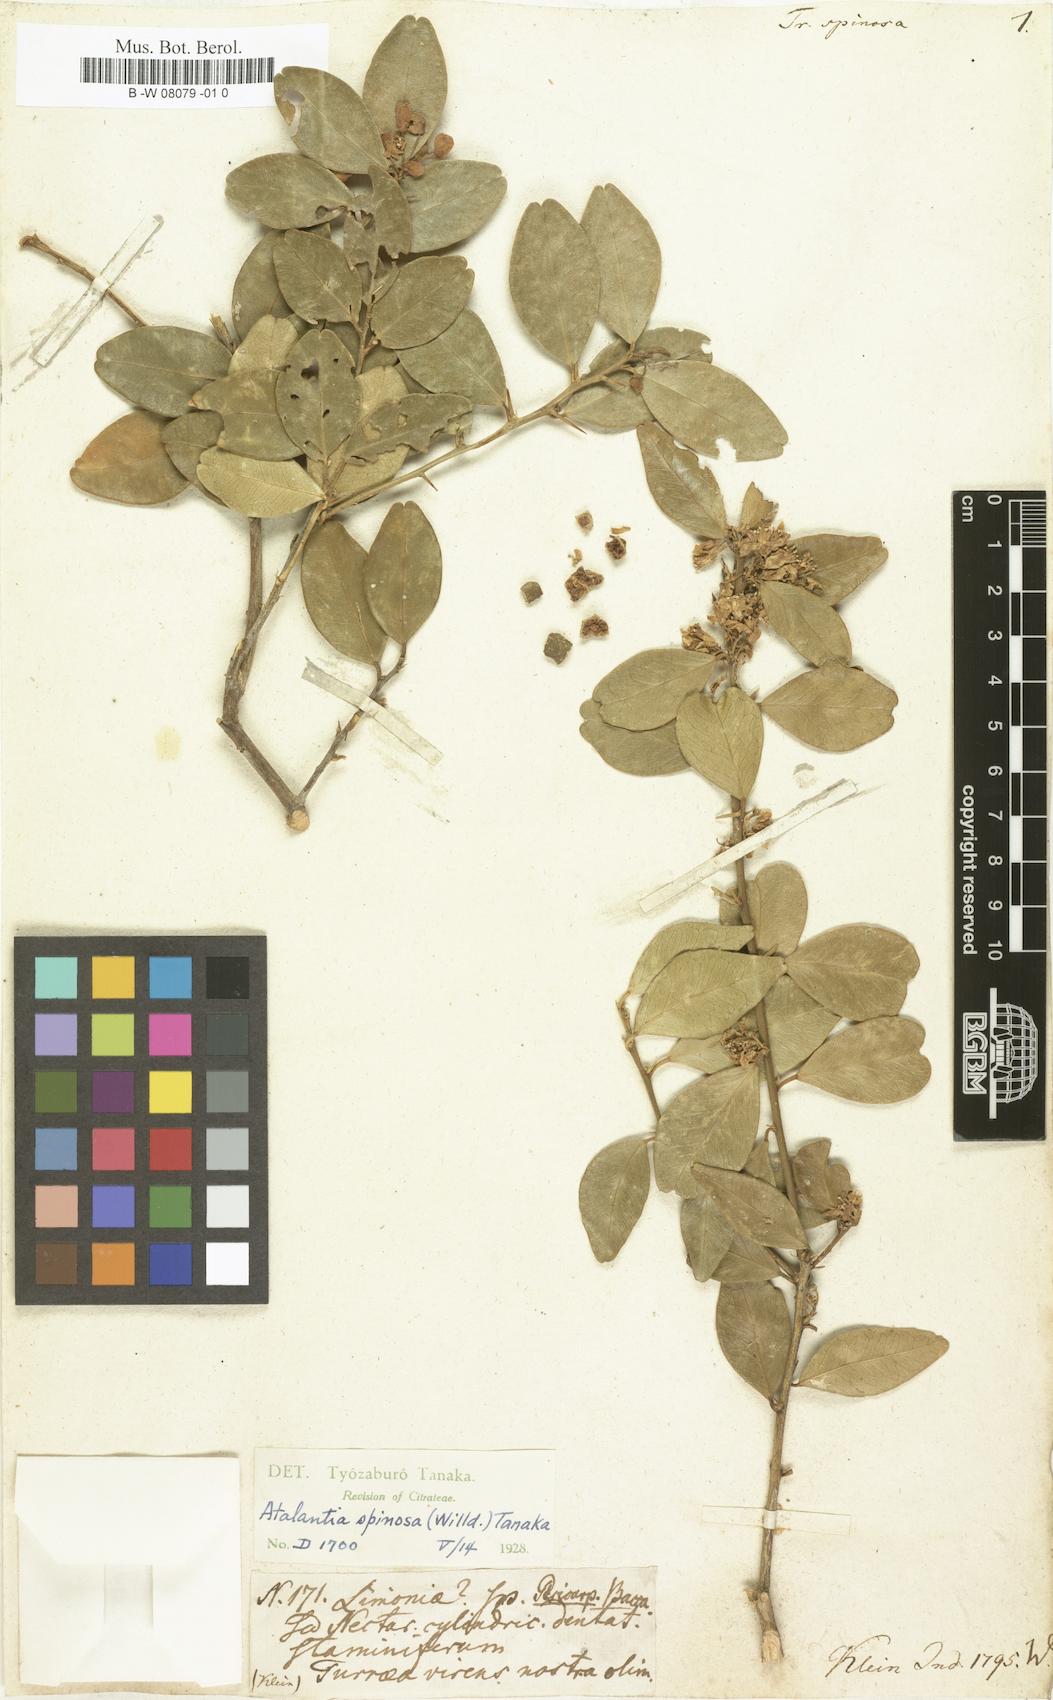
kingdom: Plantae
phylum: Tracheophyta
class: Magnoliopsida
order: Sapindales
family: Rutaceae
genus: Merope
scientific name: Merope angulata
